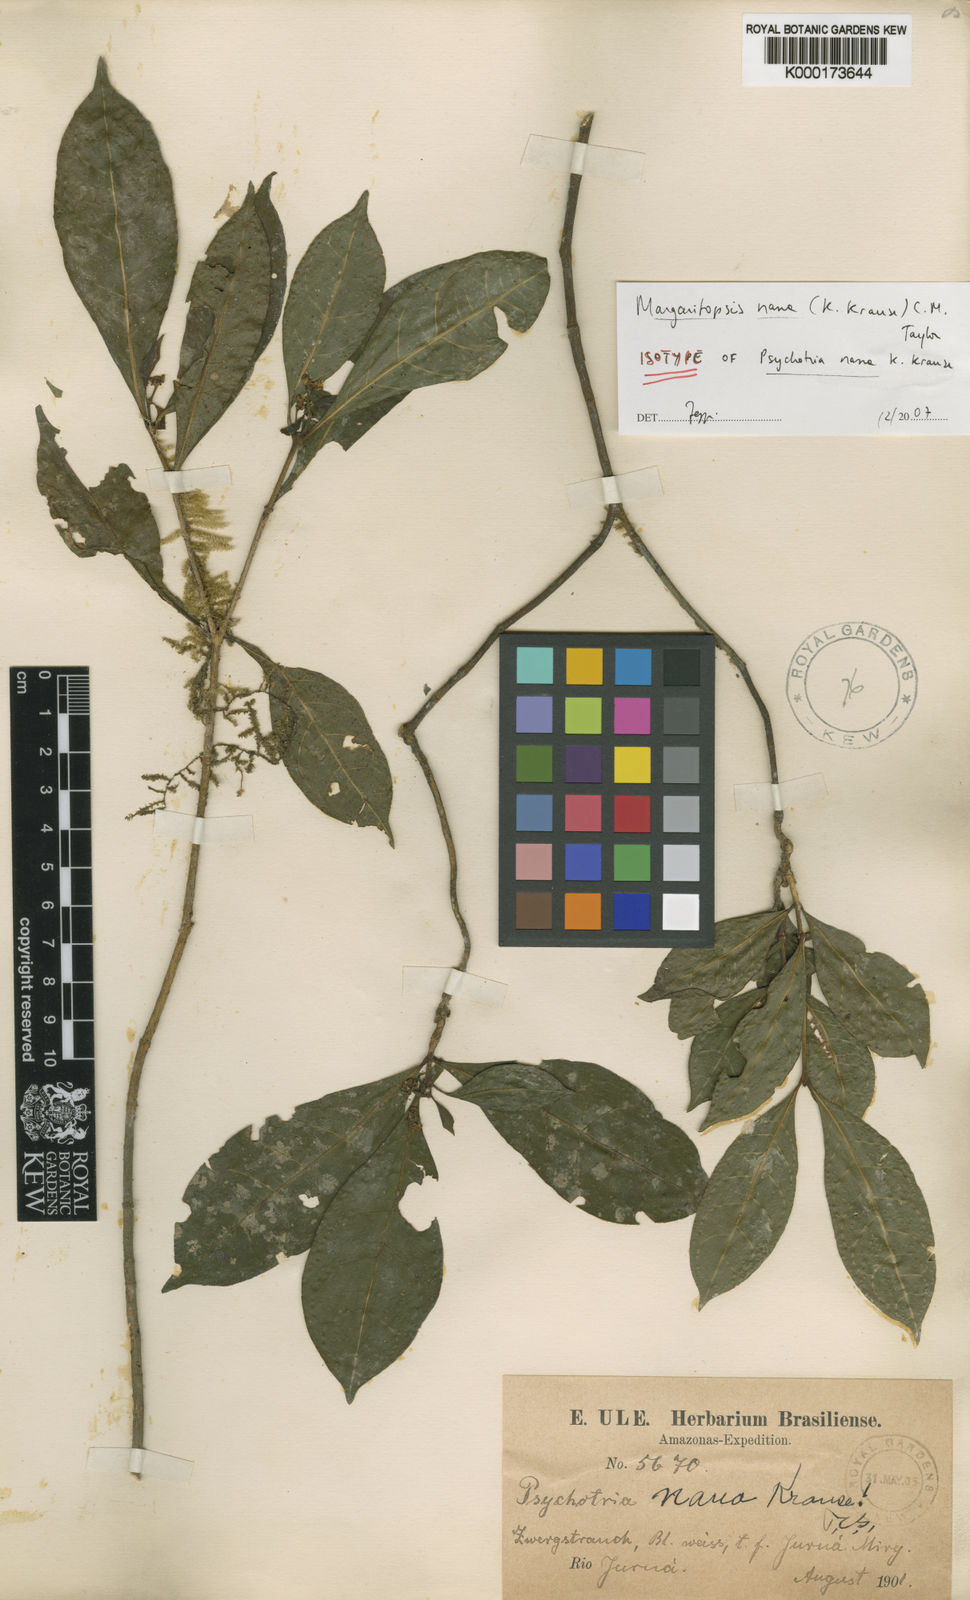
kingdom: Plantae
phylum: Tracheophyta
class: Magnoliopsida
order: Gentianales
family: Rubiaceae
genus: Eumachia
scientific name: Eumachia nana
